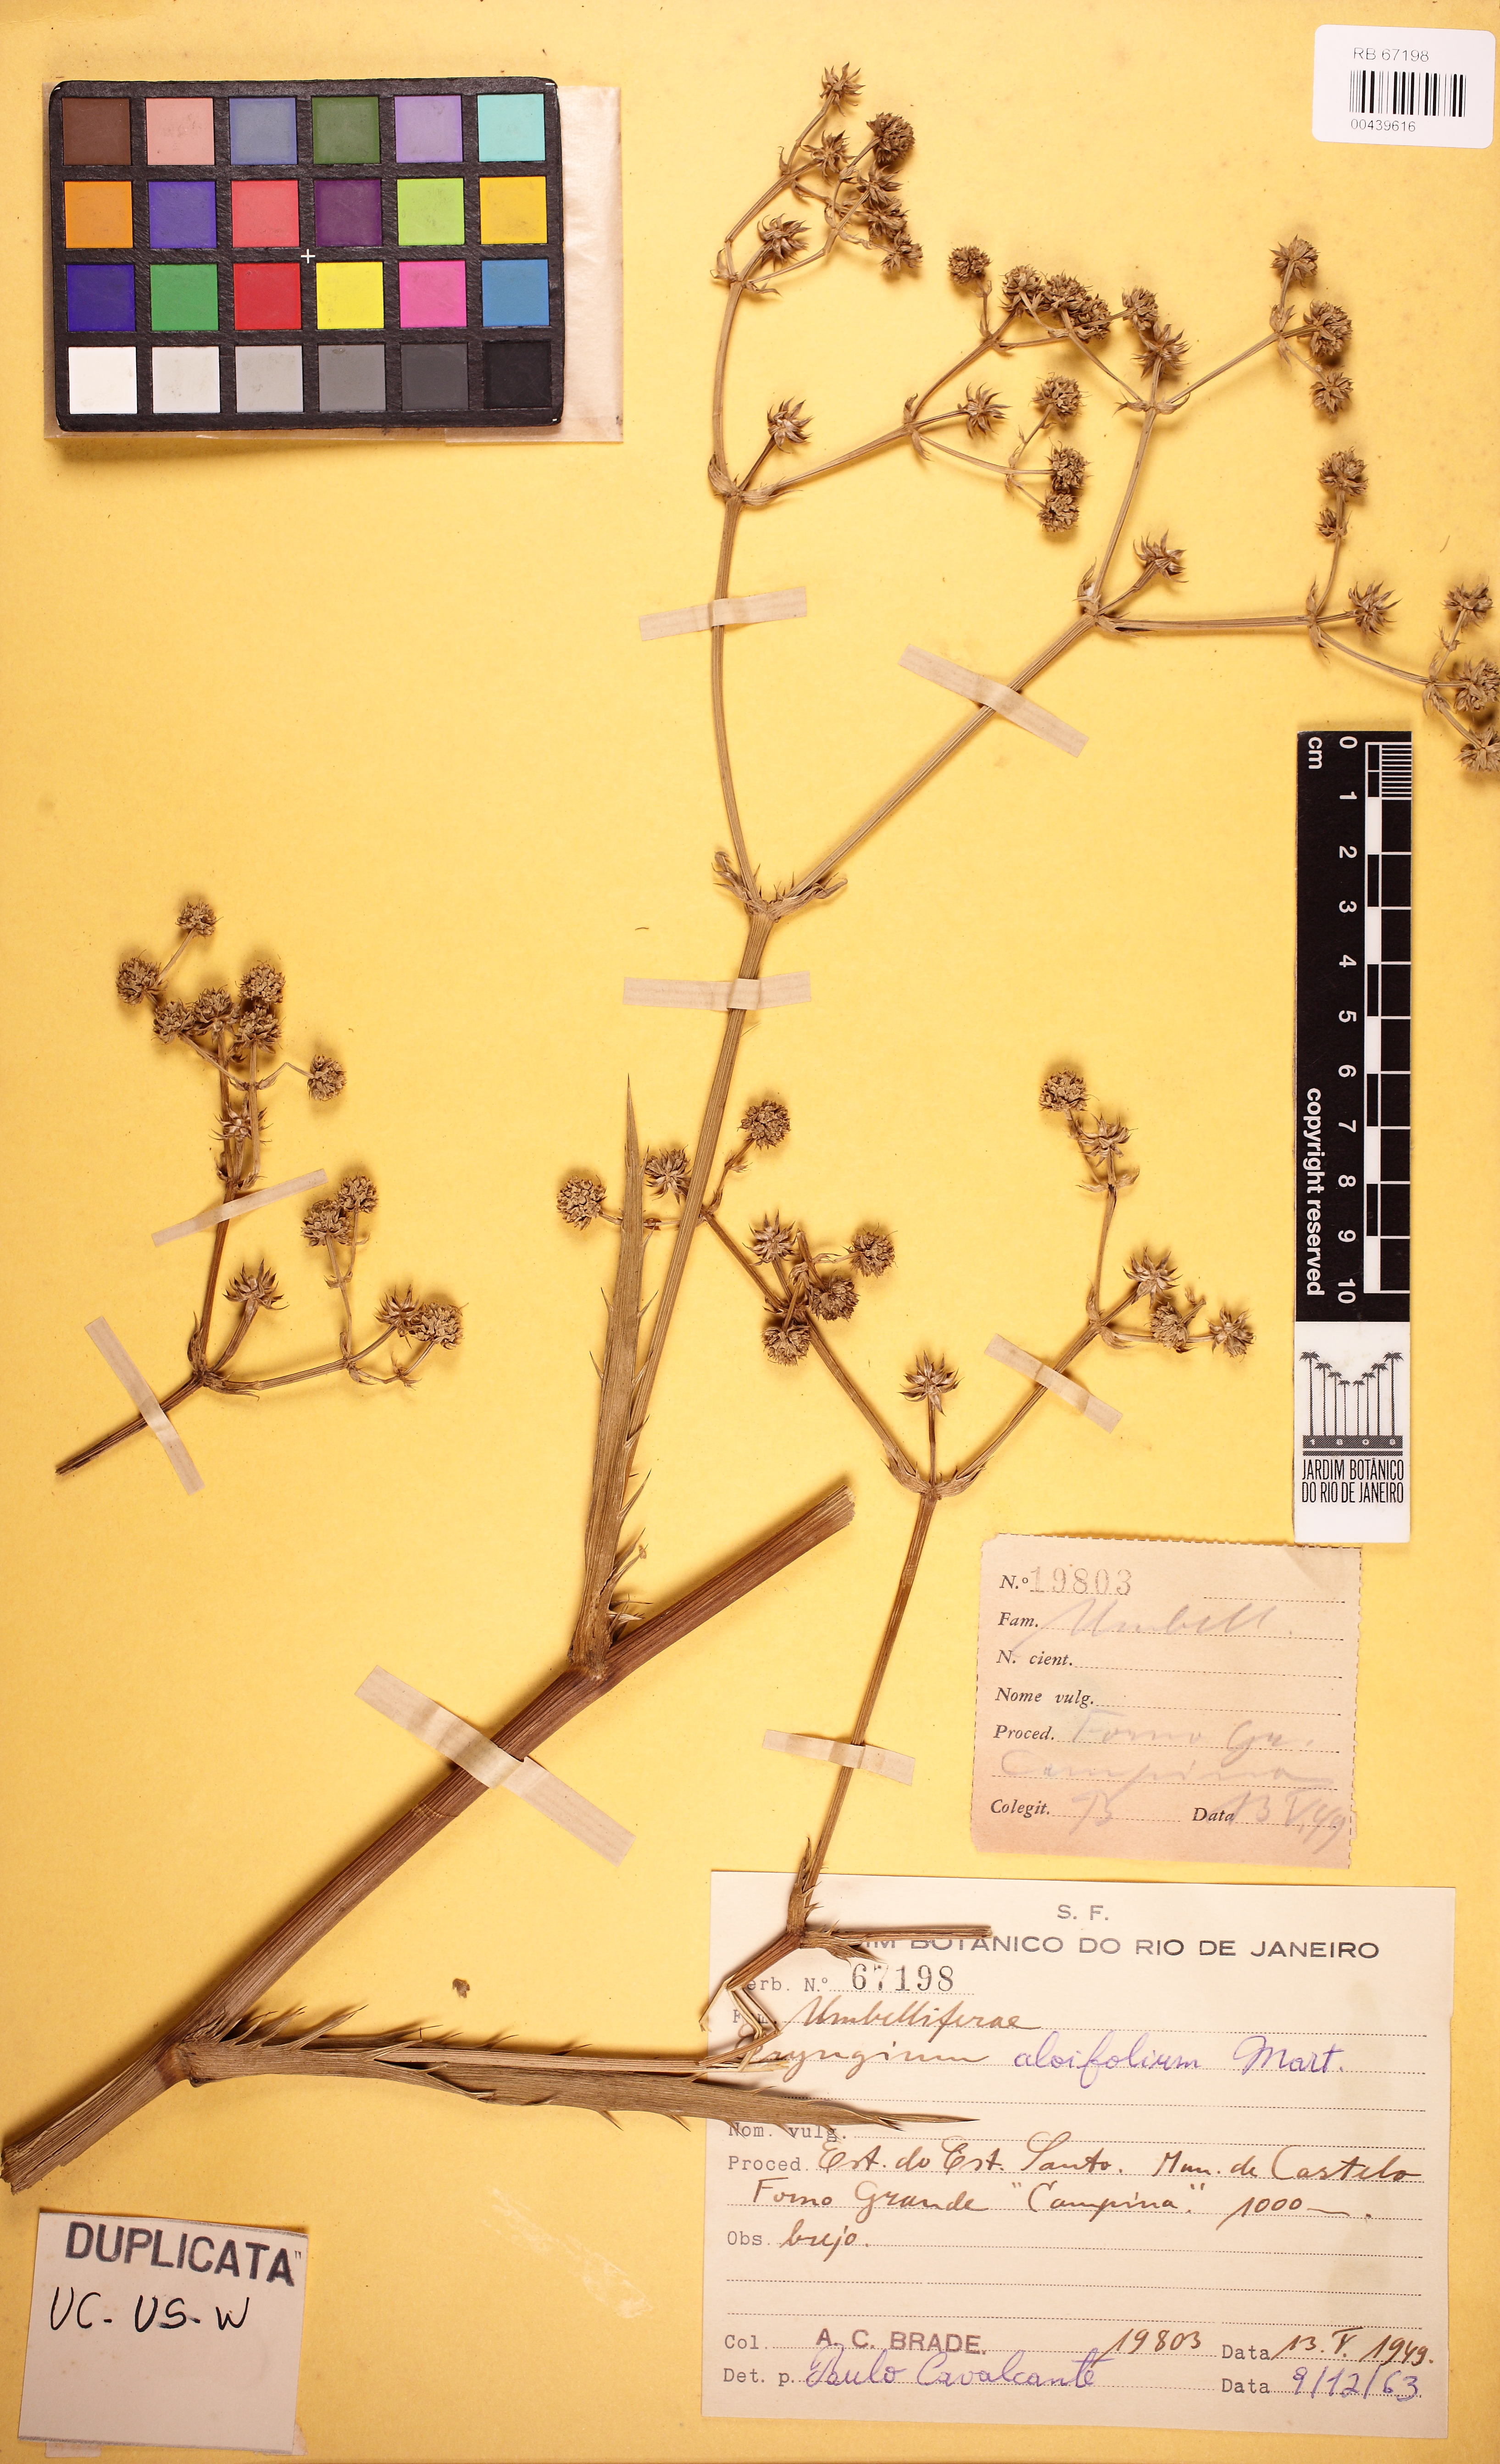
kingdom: Plantae
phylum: Tracheophyta
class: Magnoliopsida
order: Apiales
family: Apiaceae
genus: Eryngium
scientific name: Eryngium aloifolium
